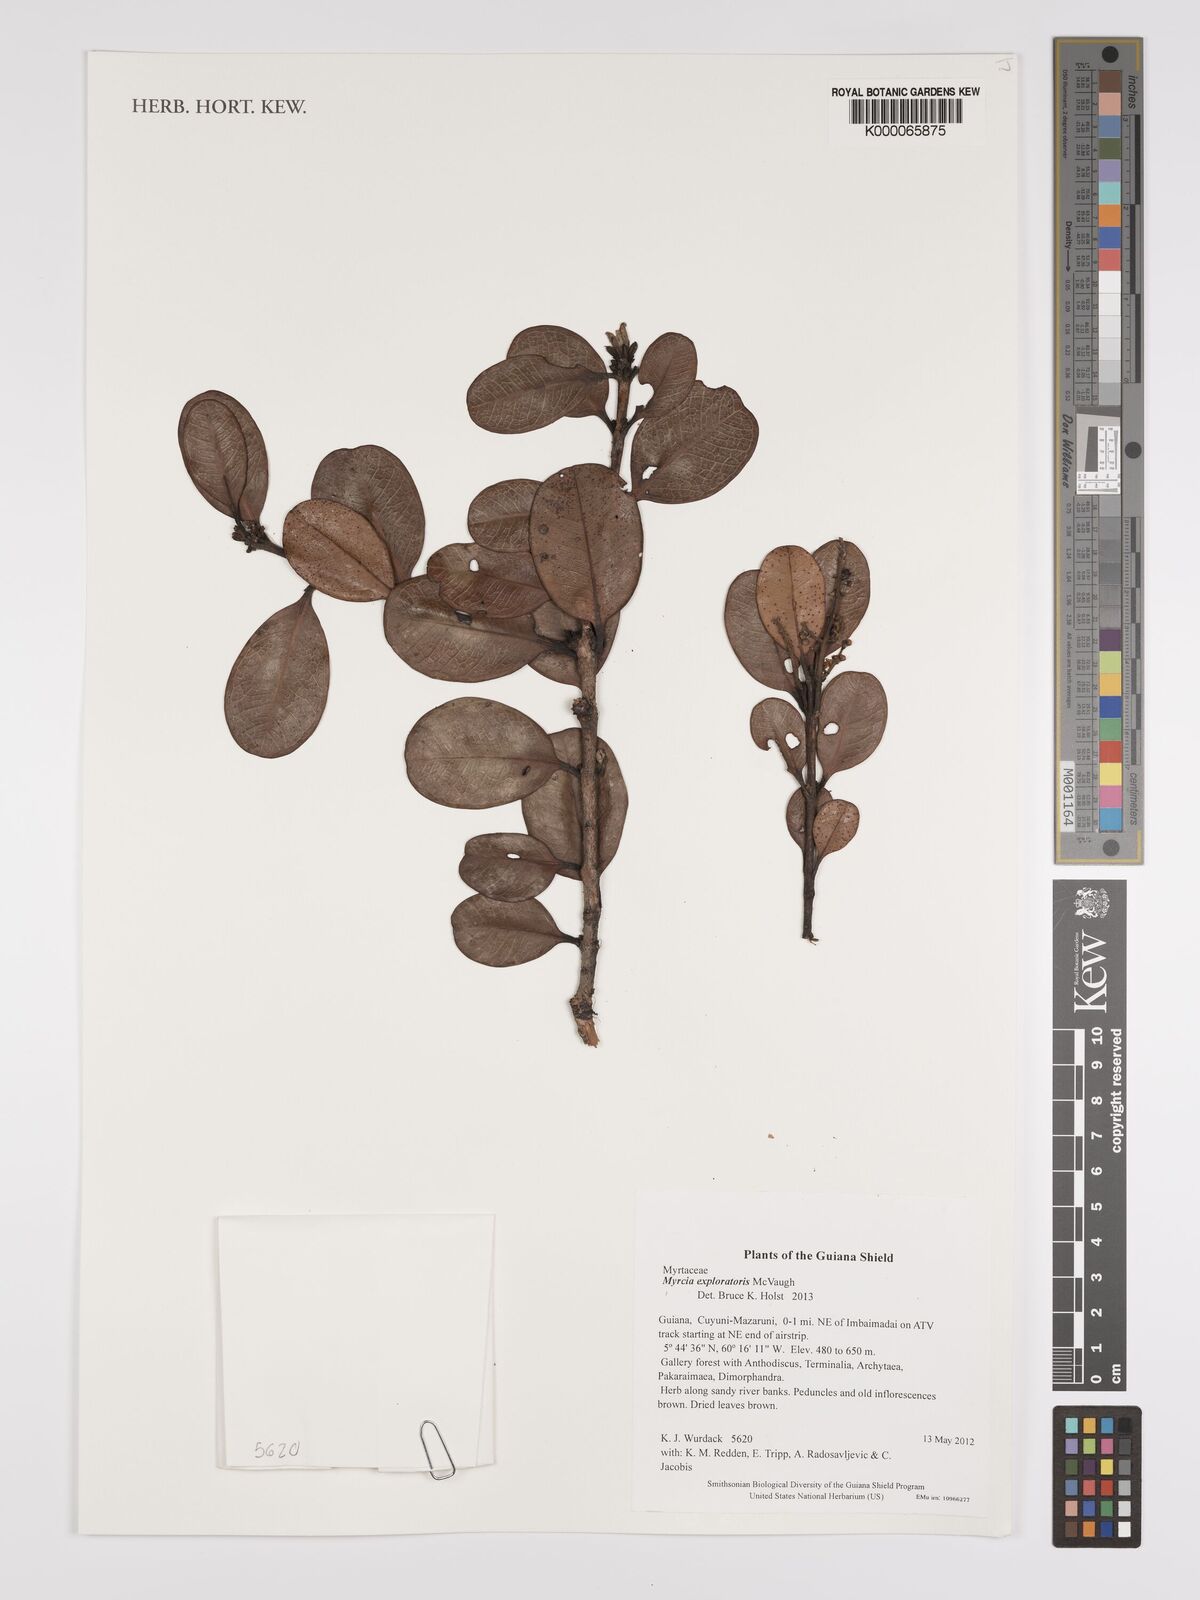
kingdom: Plantae
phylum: Tracheophyta
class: Magnoliopsida
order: Myrtales
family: Myrtaceae
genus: Myrcia
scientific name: Myrcia exploratoris
